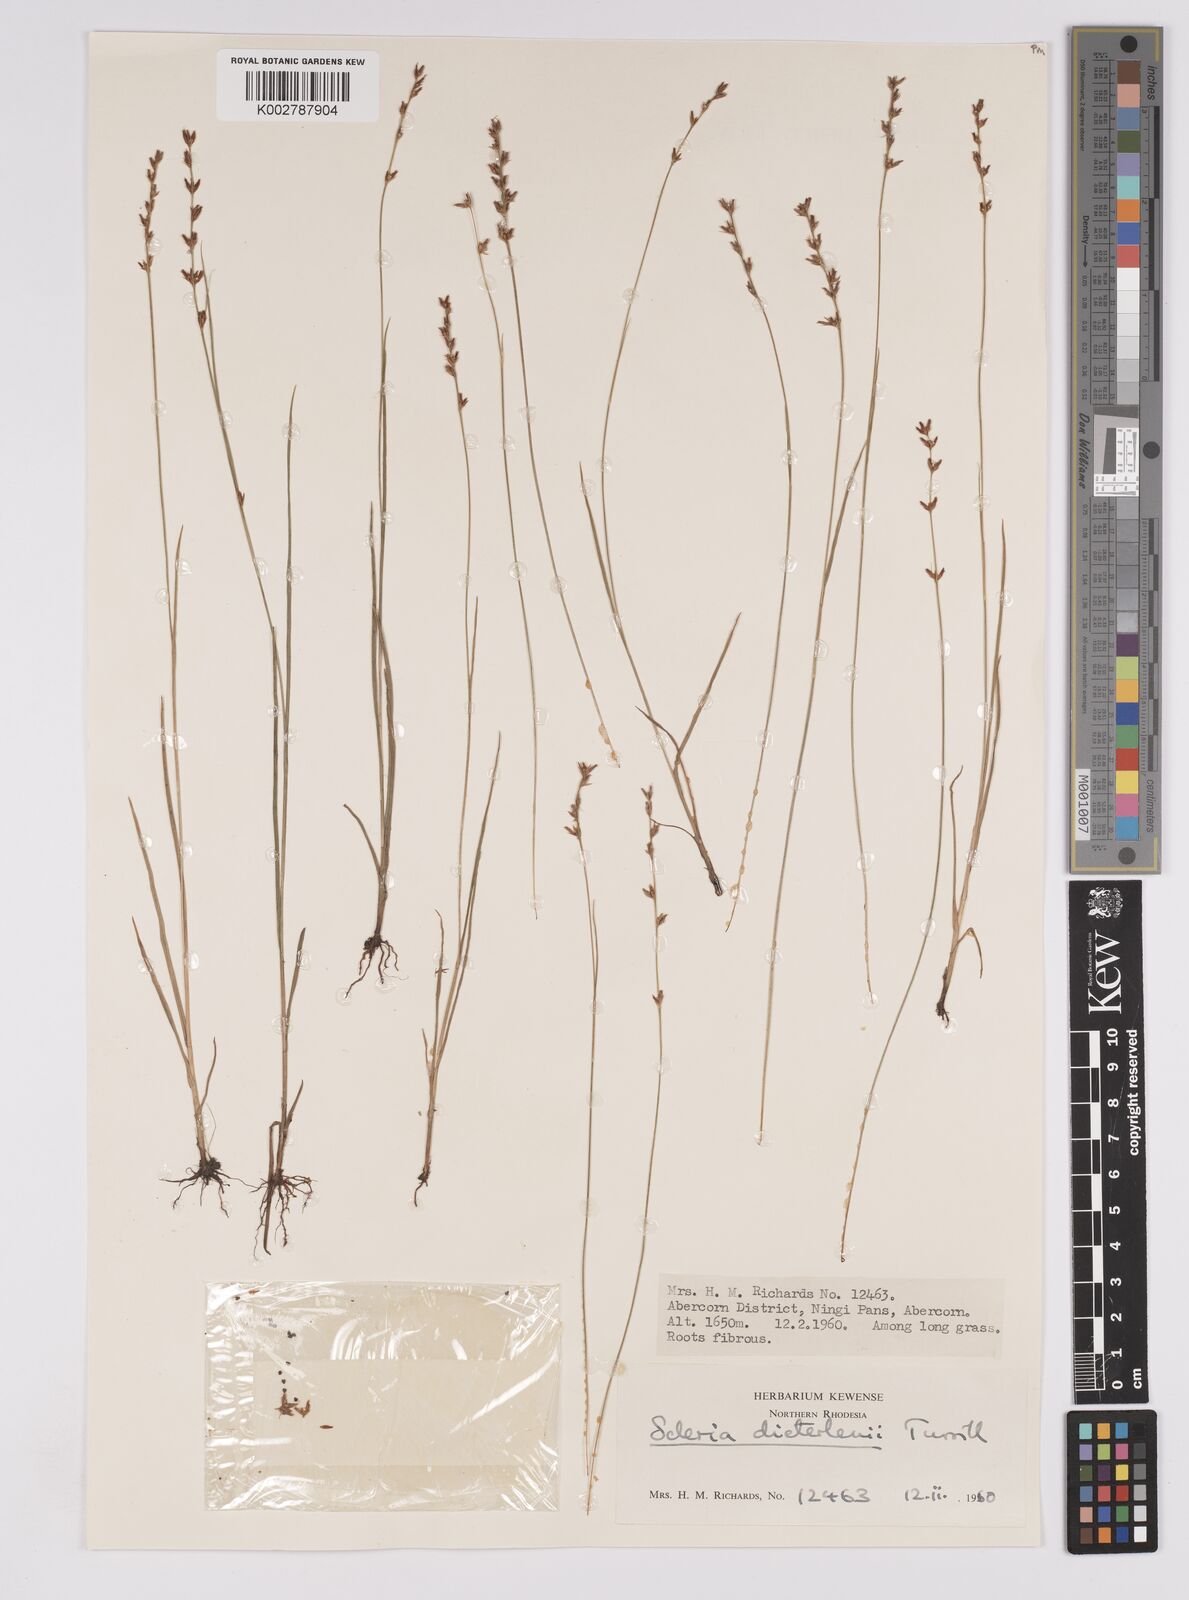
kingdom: Plantae
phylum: Tracheophyta
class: Liliopsida
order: Poales
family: Cyperaceae
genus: Scleria
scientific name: Scleria flexuosa
